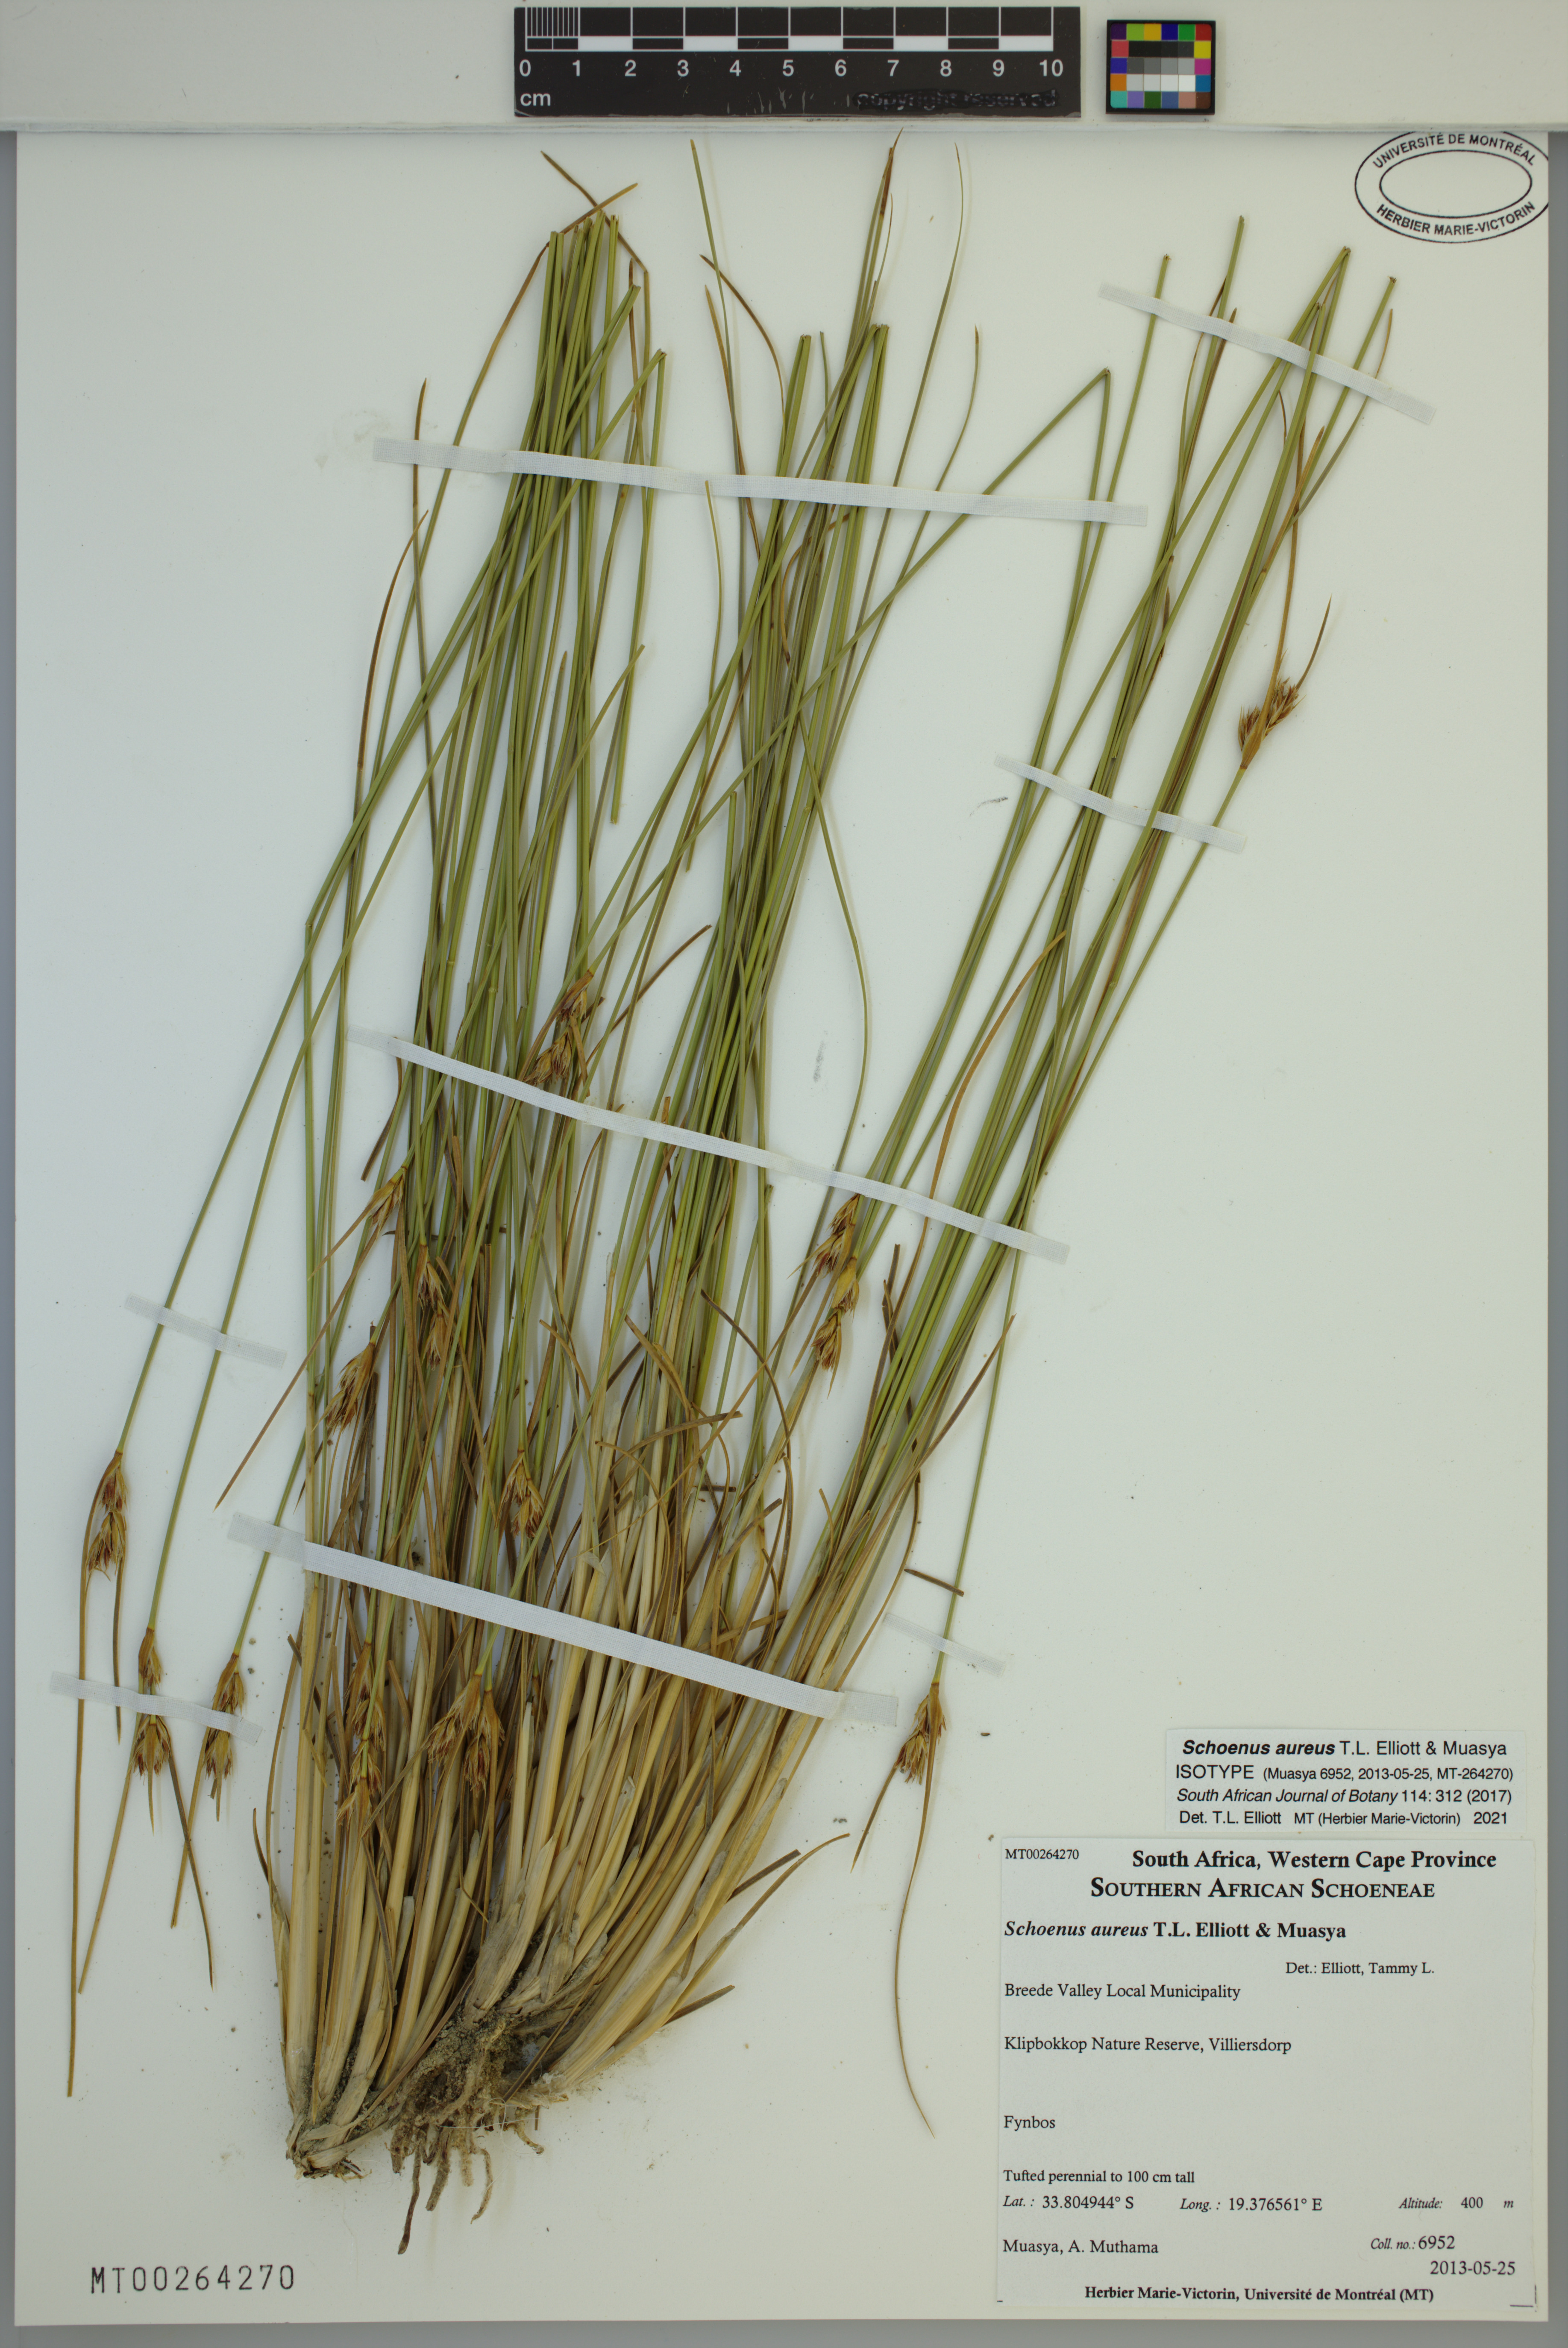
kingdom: Plantae
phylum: Tracheophyta
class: Liliopsida
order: Poales
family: Cyperaceae
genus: Schoenus
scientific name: Schoenus aureus
